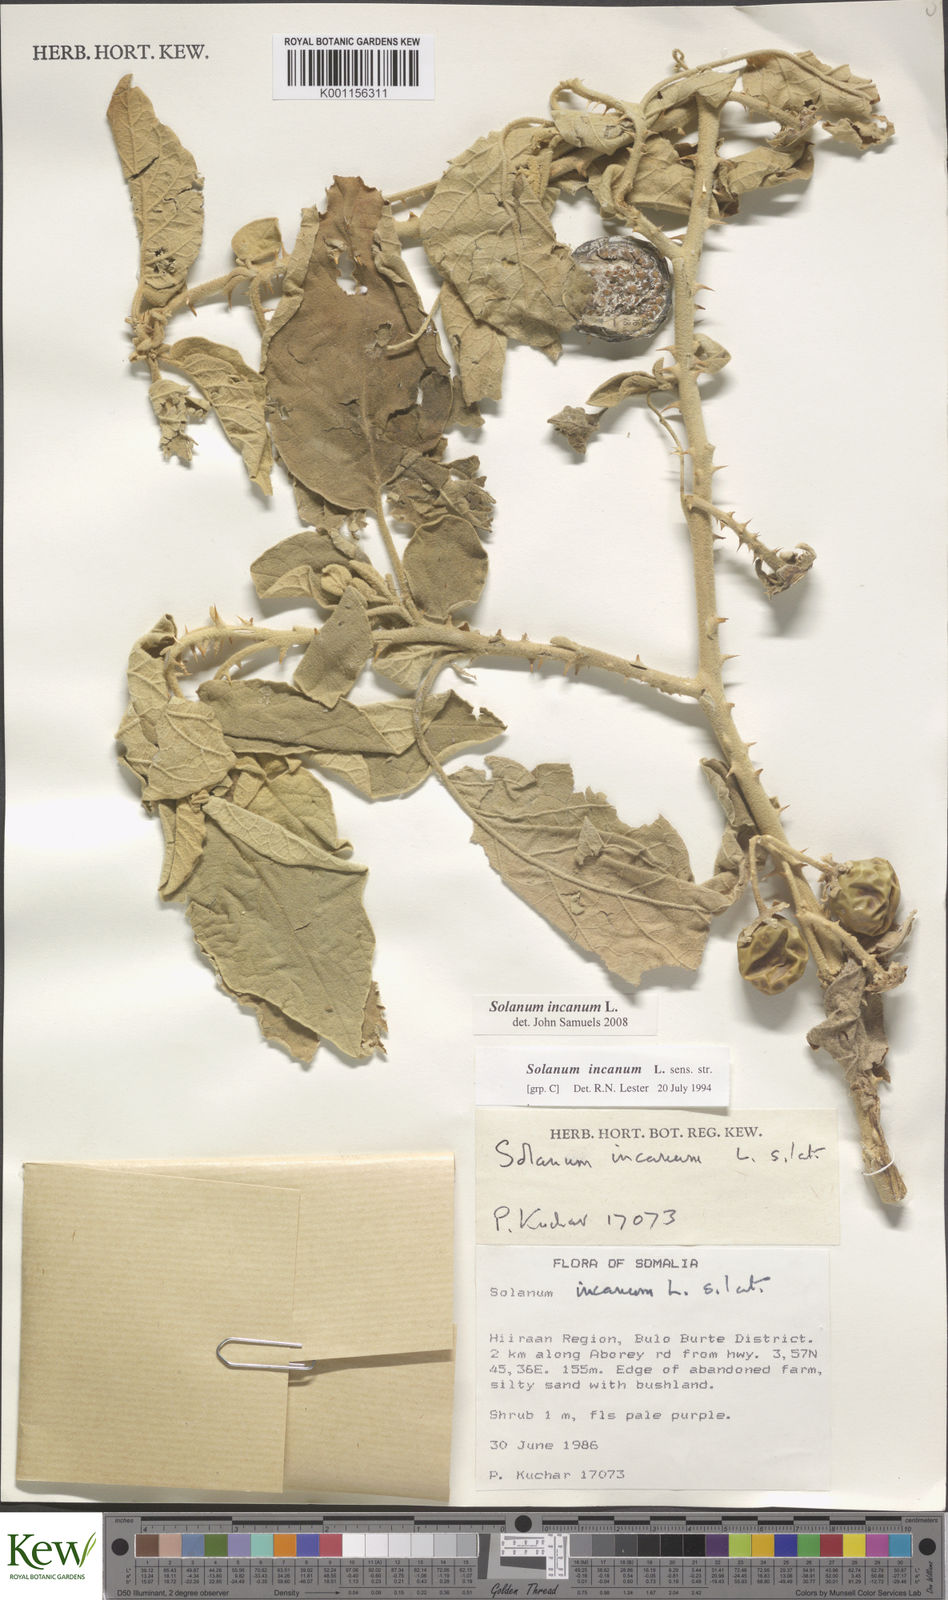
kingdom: Plantae
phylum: Tracheophyta
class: Magnoliopsida
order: Solanales
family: Solanaceae
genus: Solanum
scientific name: Solanum incanum
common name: Bitter apple
